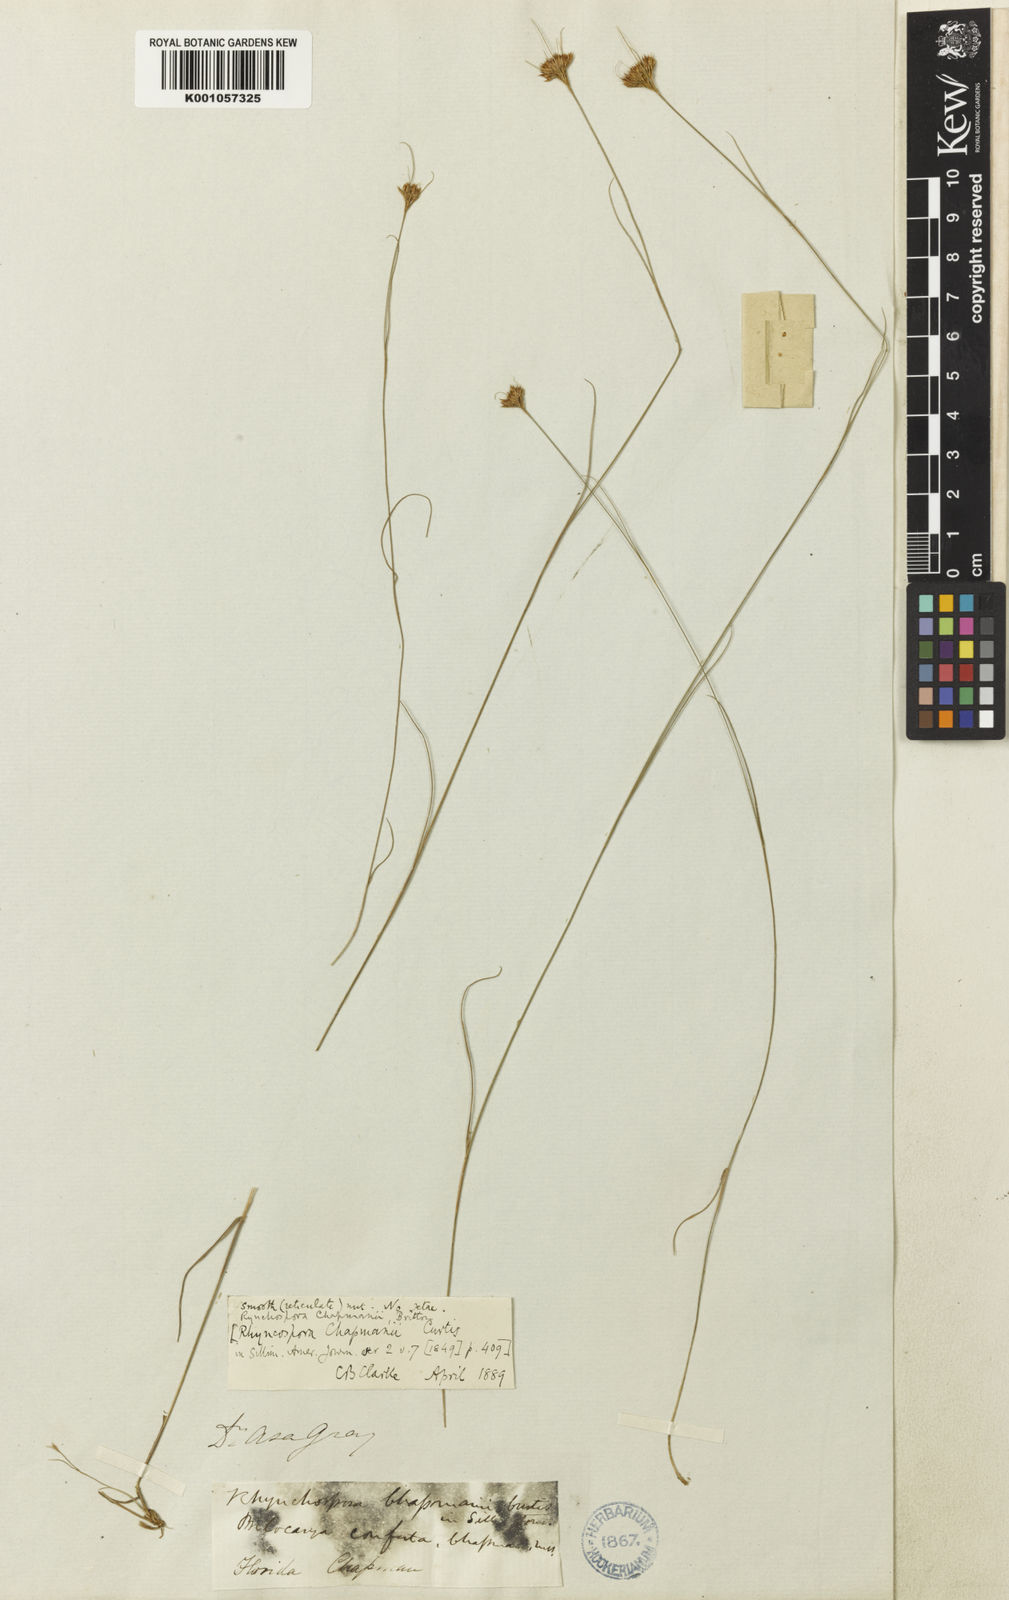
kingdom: Plantae
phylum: Tracheophyta
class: Liliopsida
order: Poales
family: Cyperaceae
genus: Rhynchospora
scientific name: Rhynchospora chapmanii
